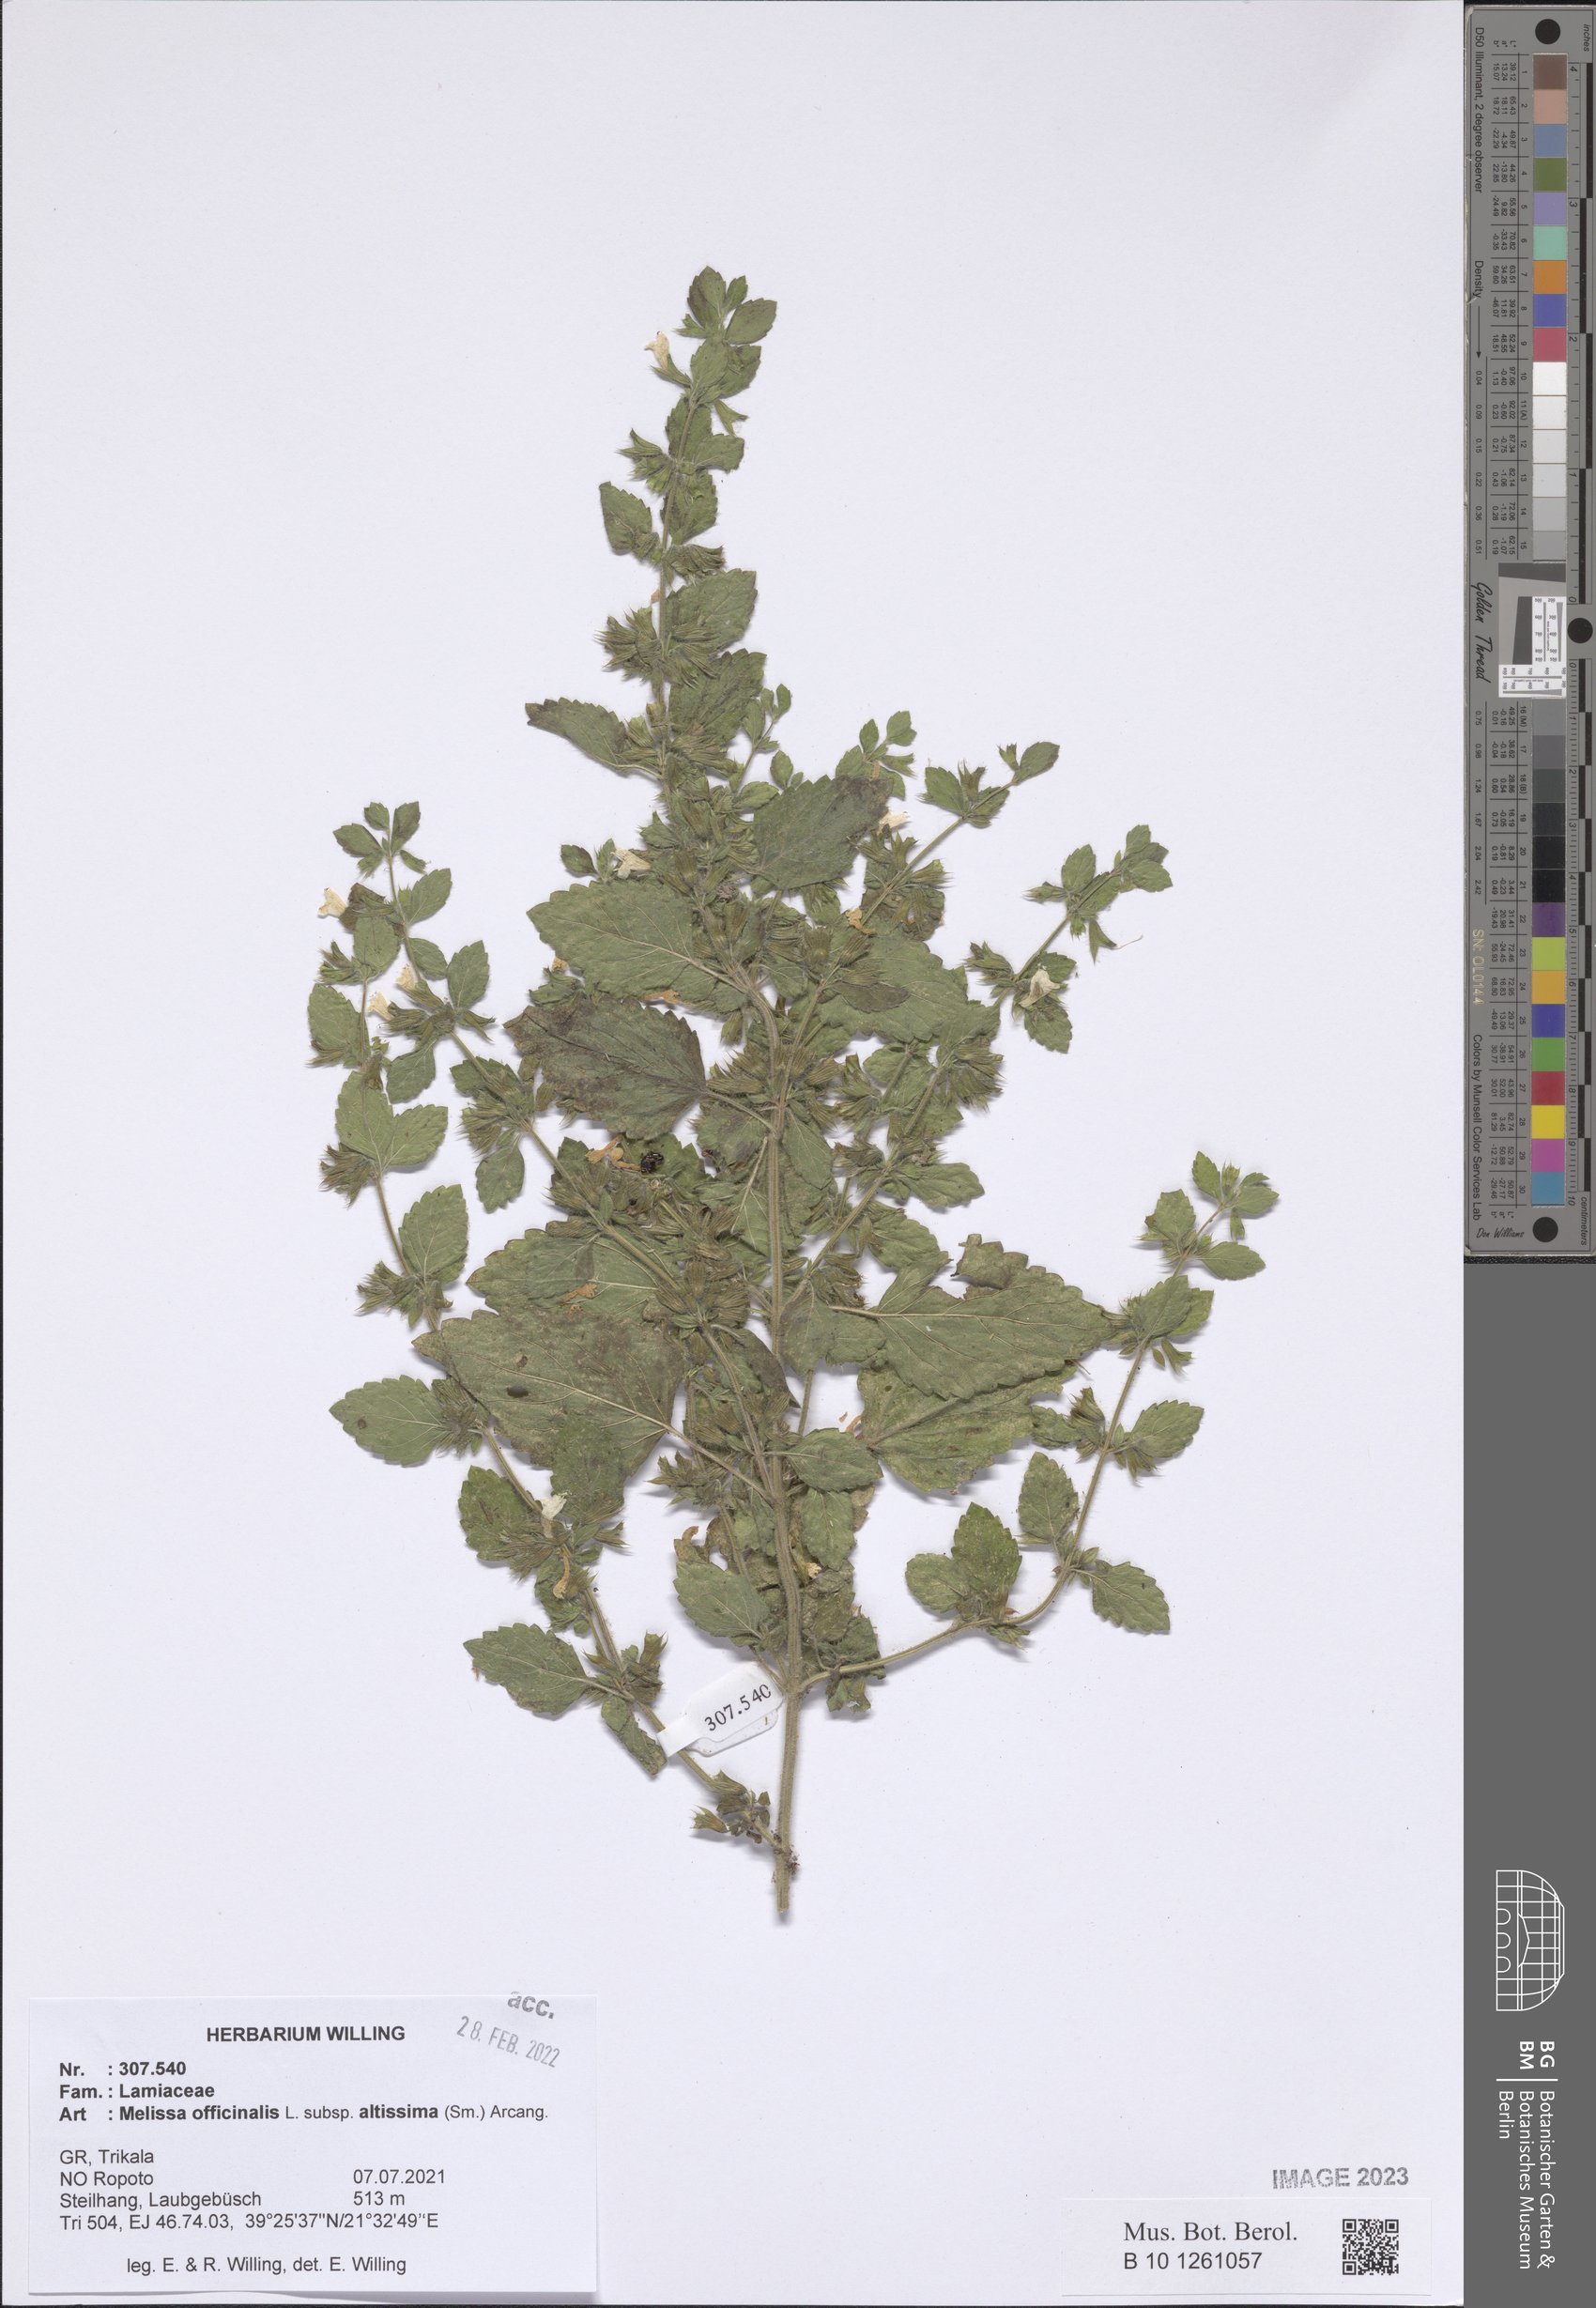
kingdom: Plantae
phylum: Tracheophyta
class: Magnoliopsida
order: Lamiales
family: Lamiaceae
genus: Melissa
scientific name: Melissa officinalis
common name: Balm
